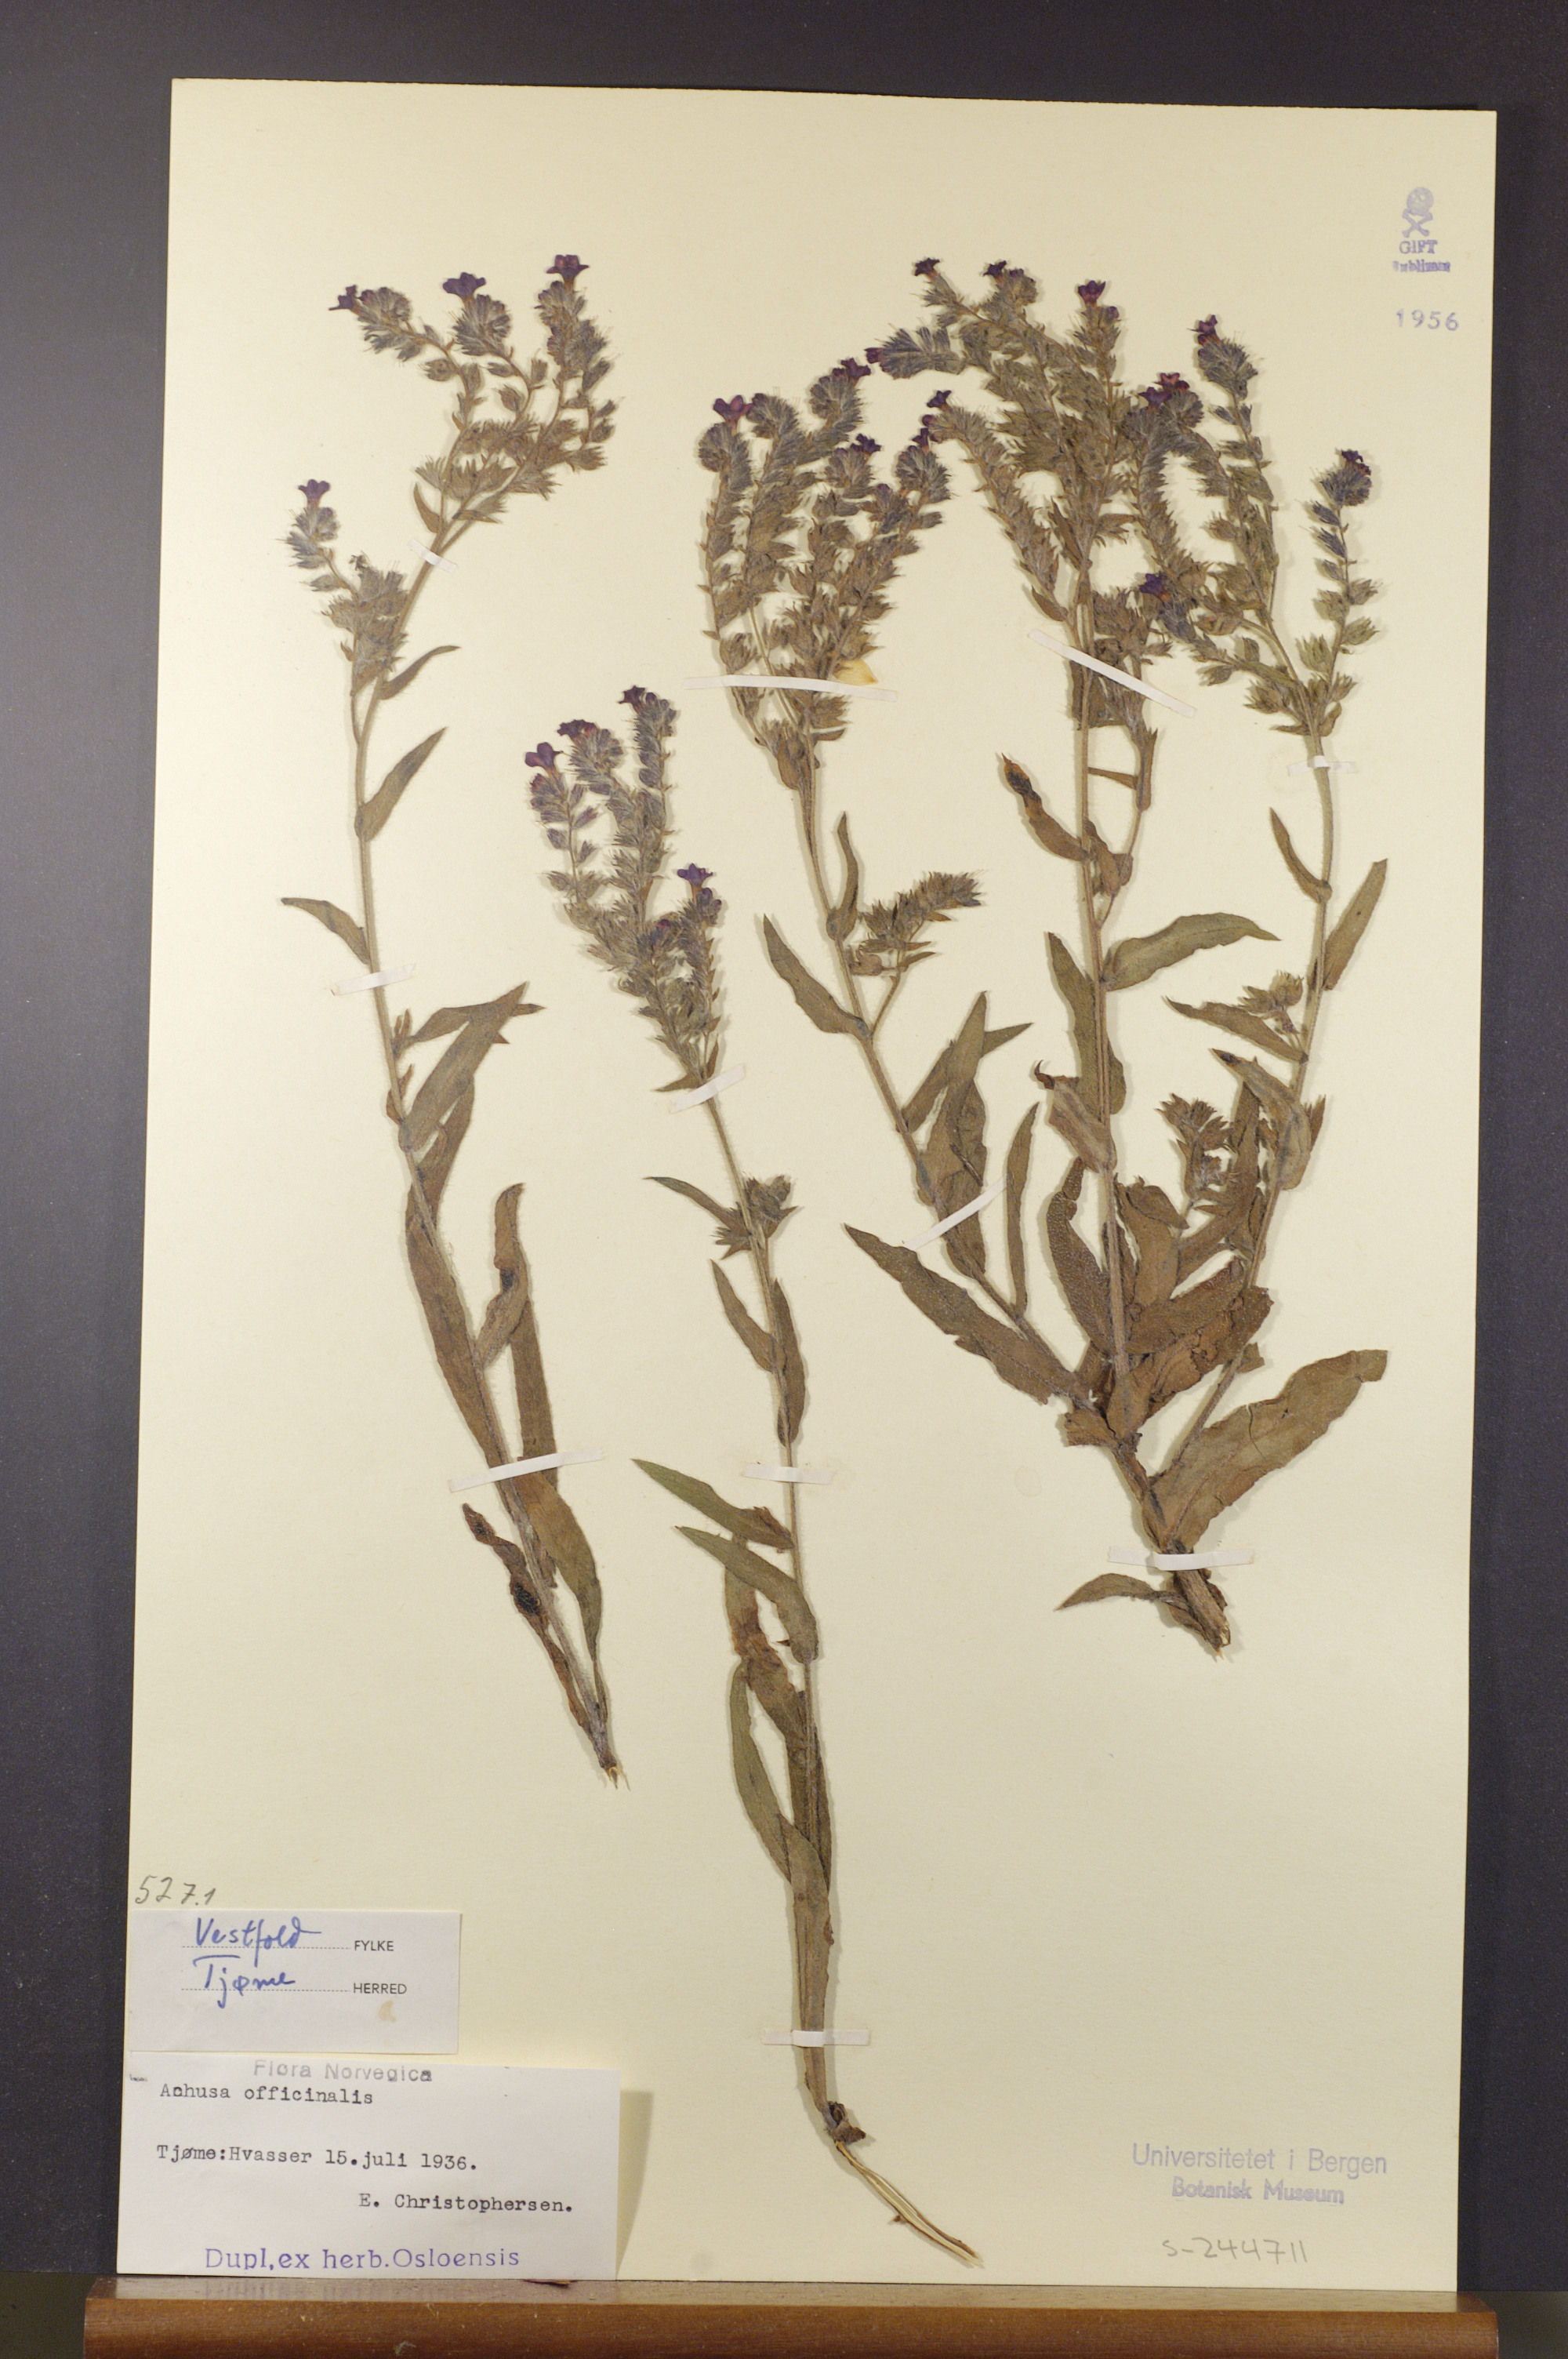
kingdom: Plantae
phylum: Tracheophyta
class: Magnoliopsida
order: Boraginales
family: Boraginaceae
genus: Anchusa
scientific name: Anchusa officinalis
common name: Alkanet
